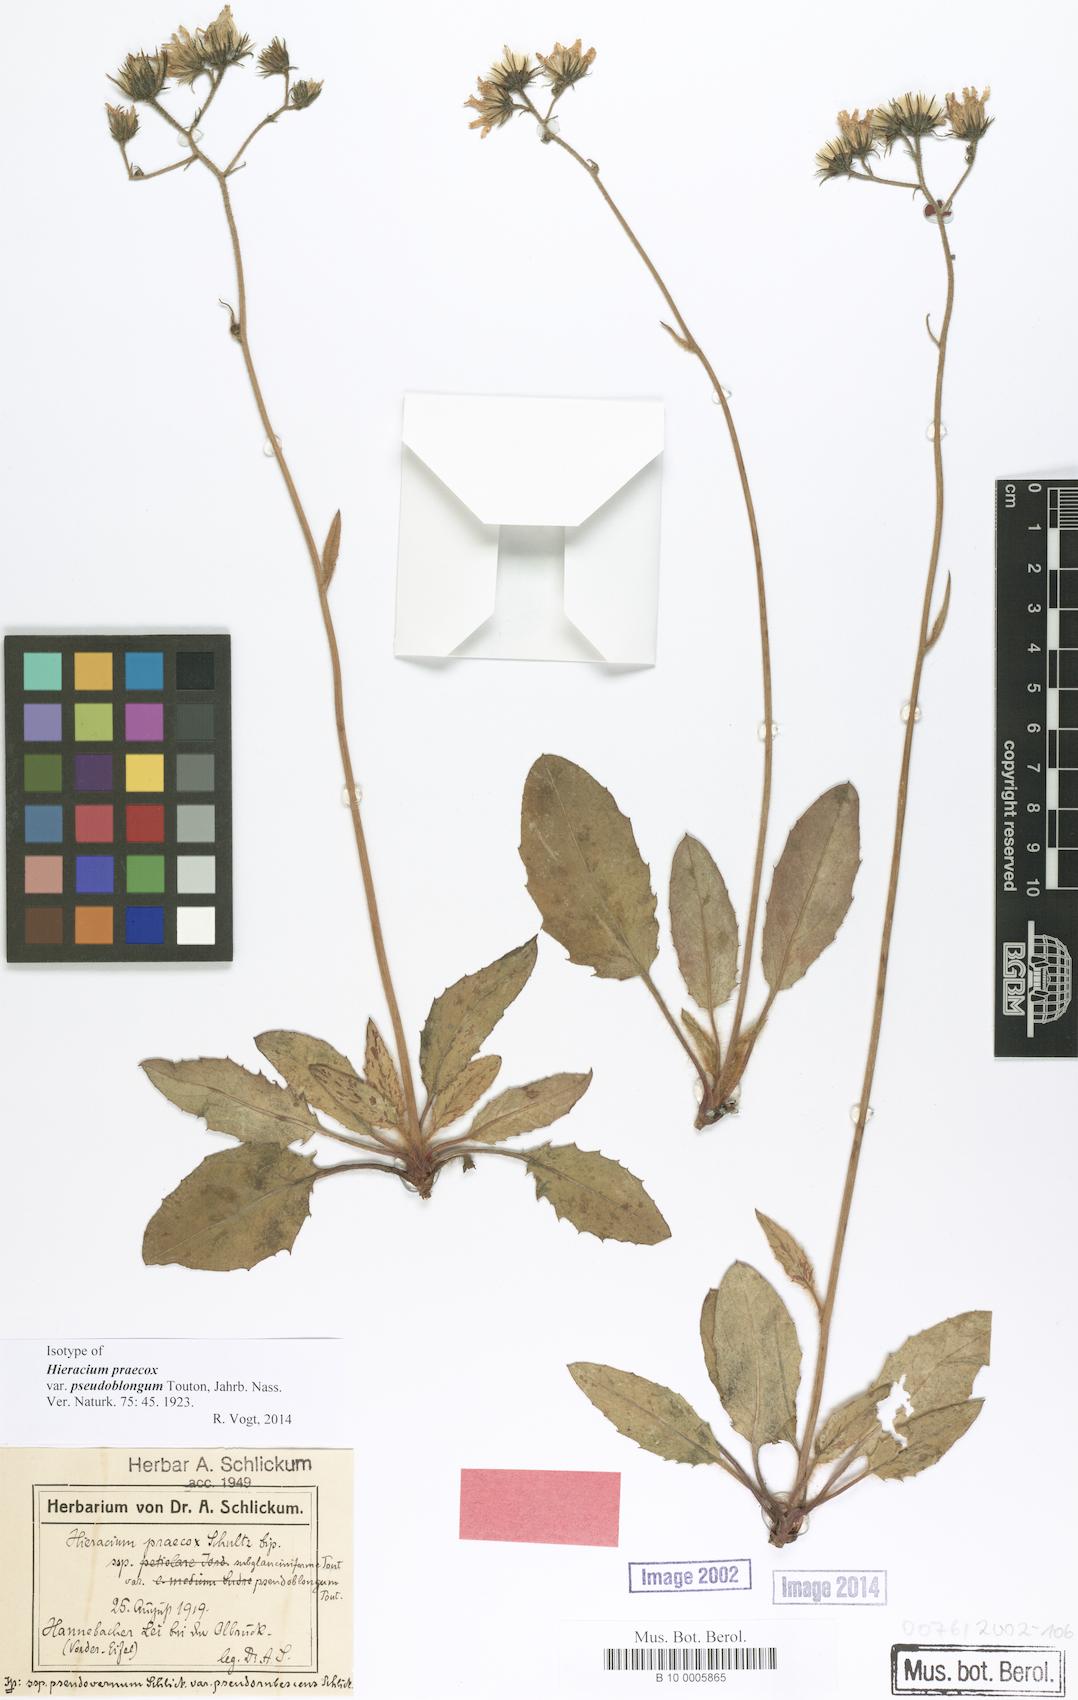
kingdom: Plantae
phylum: Tracheophyta
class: Magnoliopsida
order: Asterales
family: Asteraceae
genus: Hieracium
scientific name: Hieracium murorum
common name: Wall hawkweed
